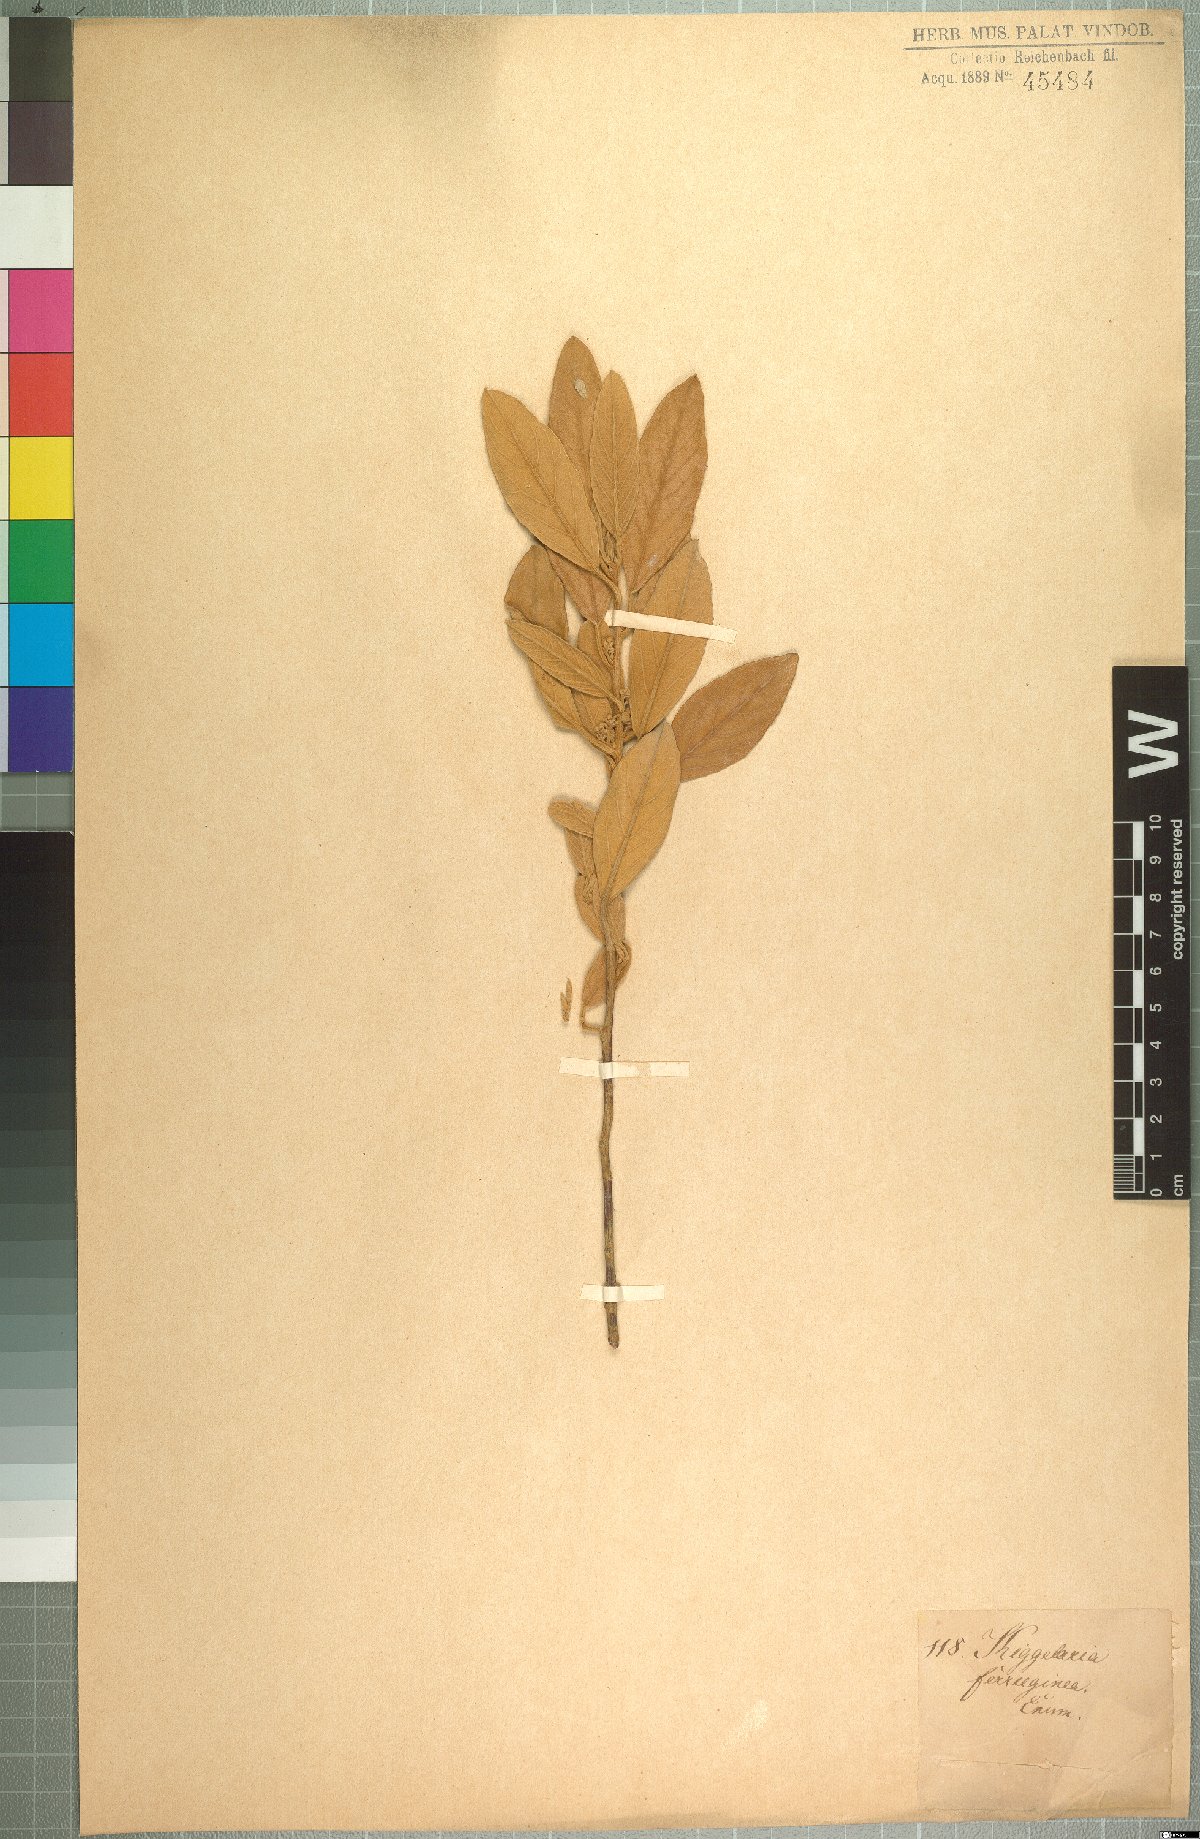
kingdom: Plantae
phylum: Tracheophyta
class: Magnoliopsida
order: Malpighiales
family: Achariaceae
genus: Kiggelaria
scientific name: Kiggelaria africana
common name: Wild peach
